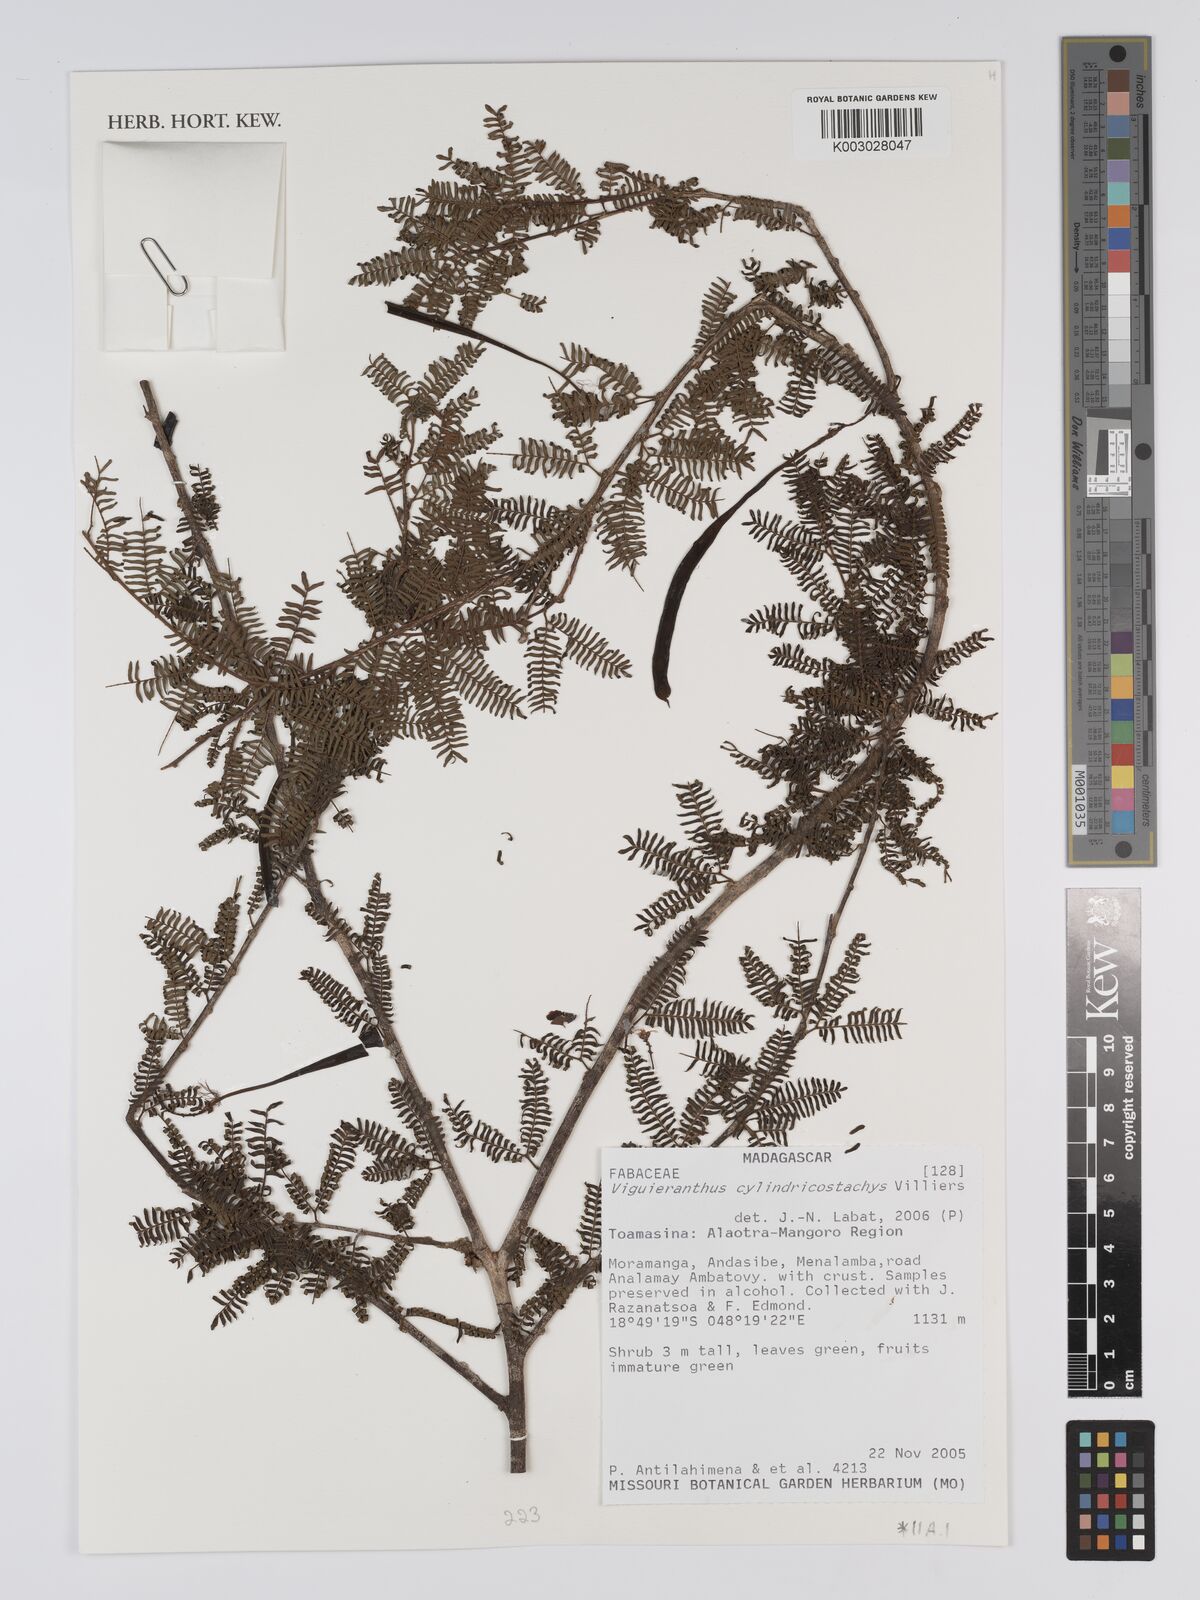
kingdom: Plantae
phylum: Tracheophyta
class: Magnoliopsida
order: Fabales
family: Fabaceae
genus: Viguieranthus
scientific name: Viguieranthus cylindricostachys
